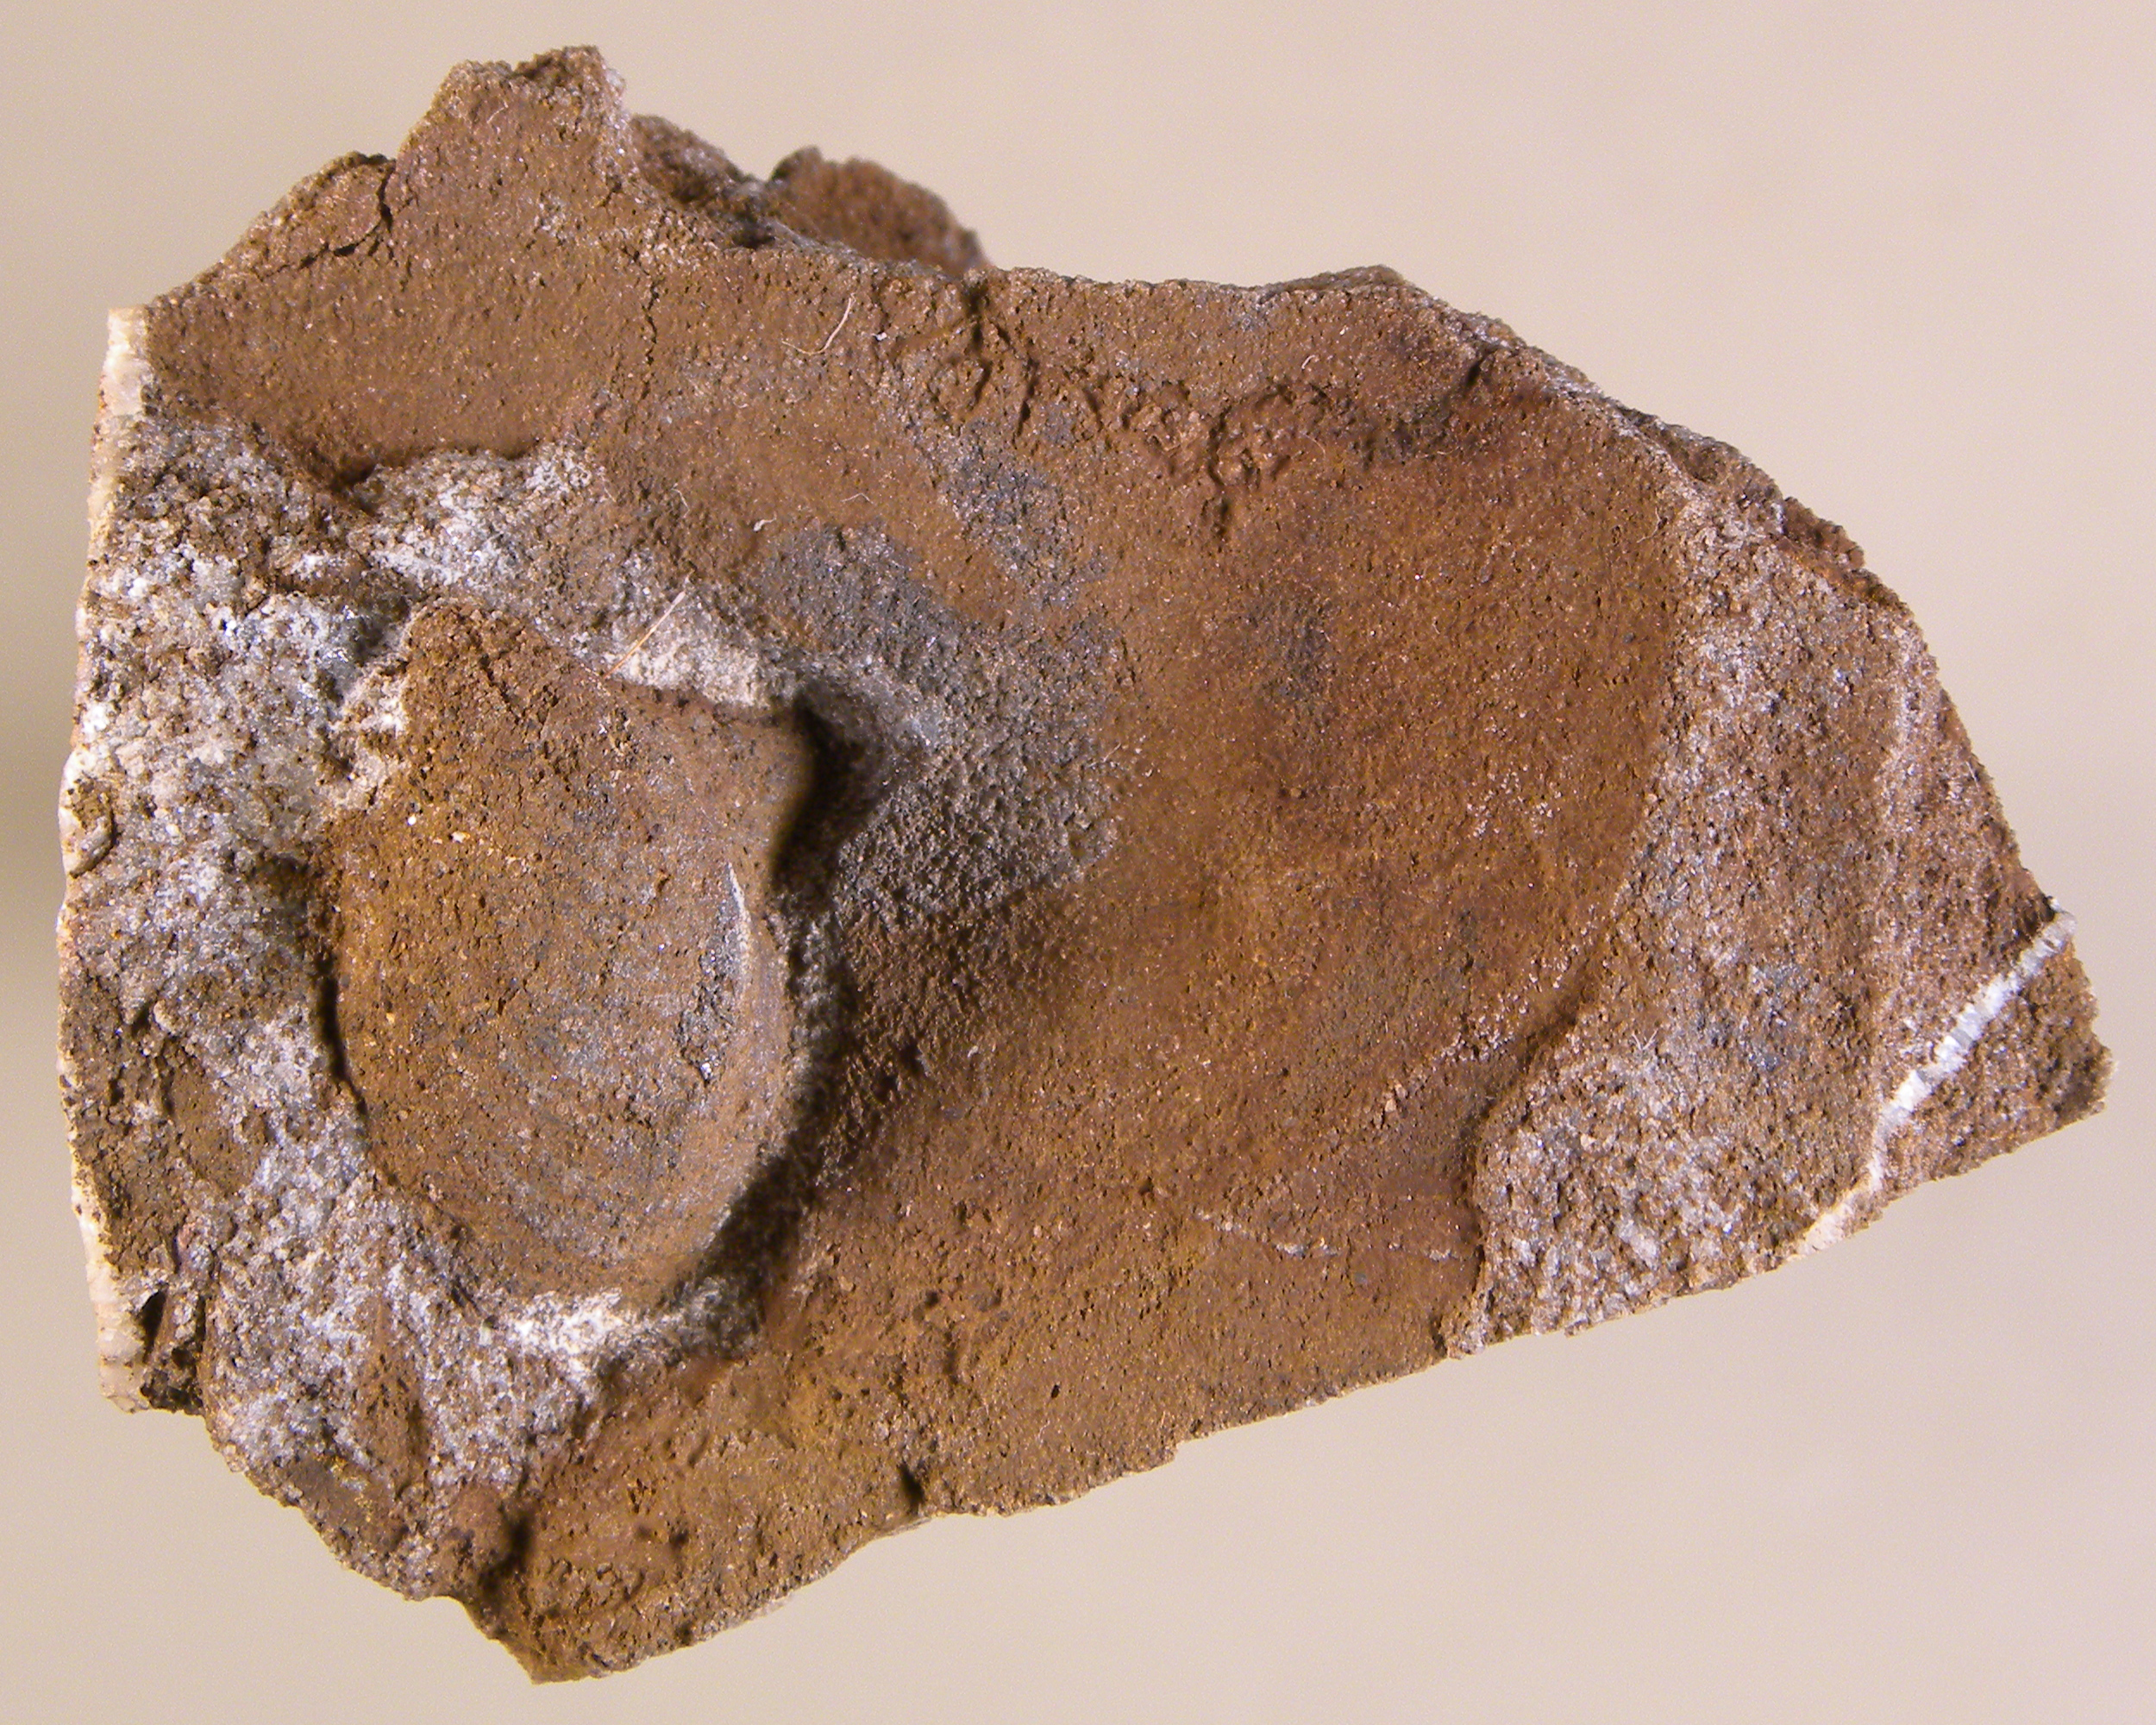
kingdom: Animalia
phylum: Mollusca
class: Bivalvia
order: Ostreida
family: Pterineidae
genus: Leptodesma
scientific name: Leptodesma
